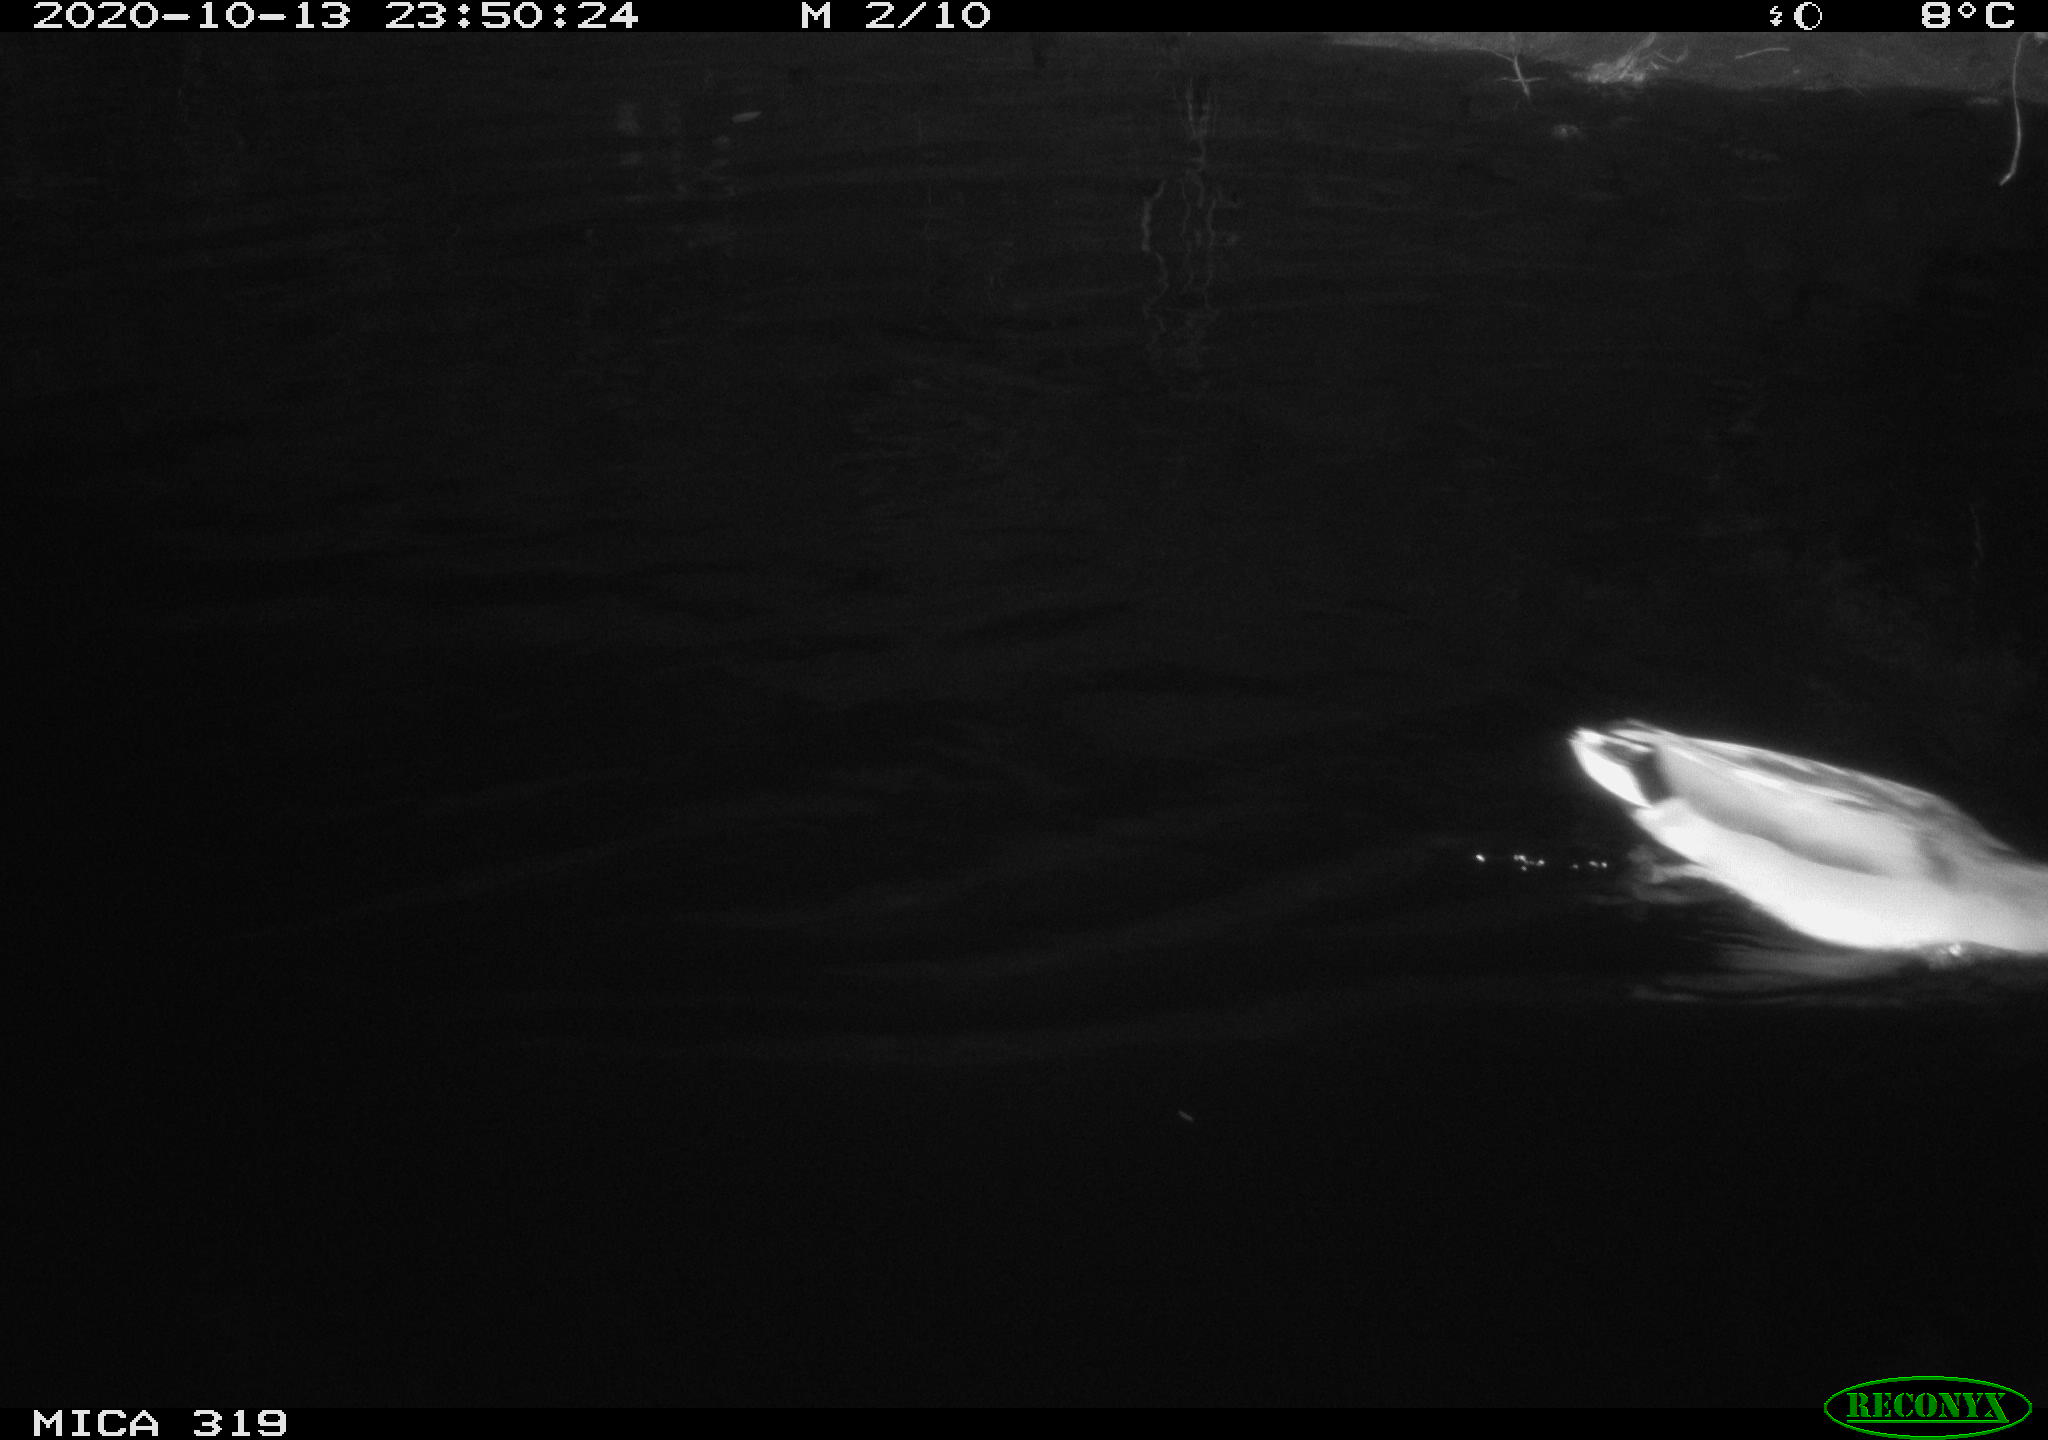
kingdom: Animalia
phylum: Chordata
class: Aves
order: Anseriformes
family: Anatidae
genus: Anas
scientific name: Anas platyrhynchos
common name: Mallard
